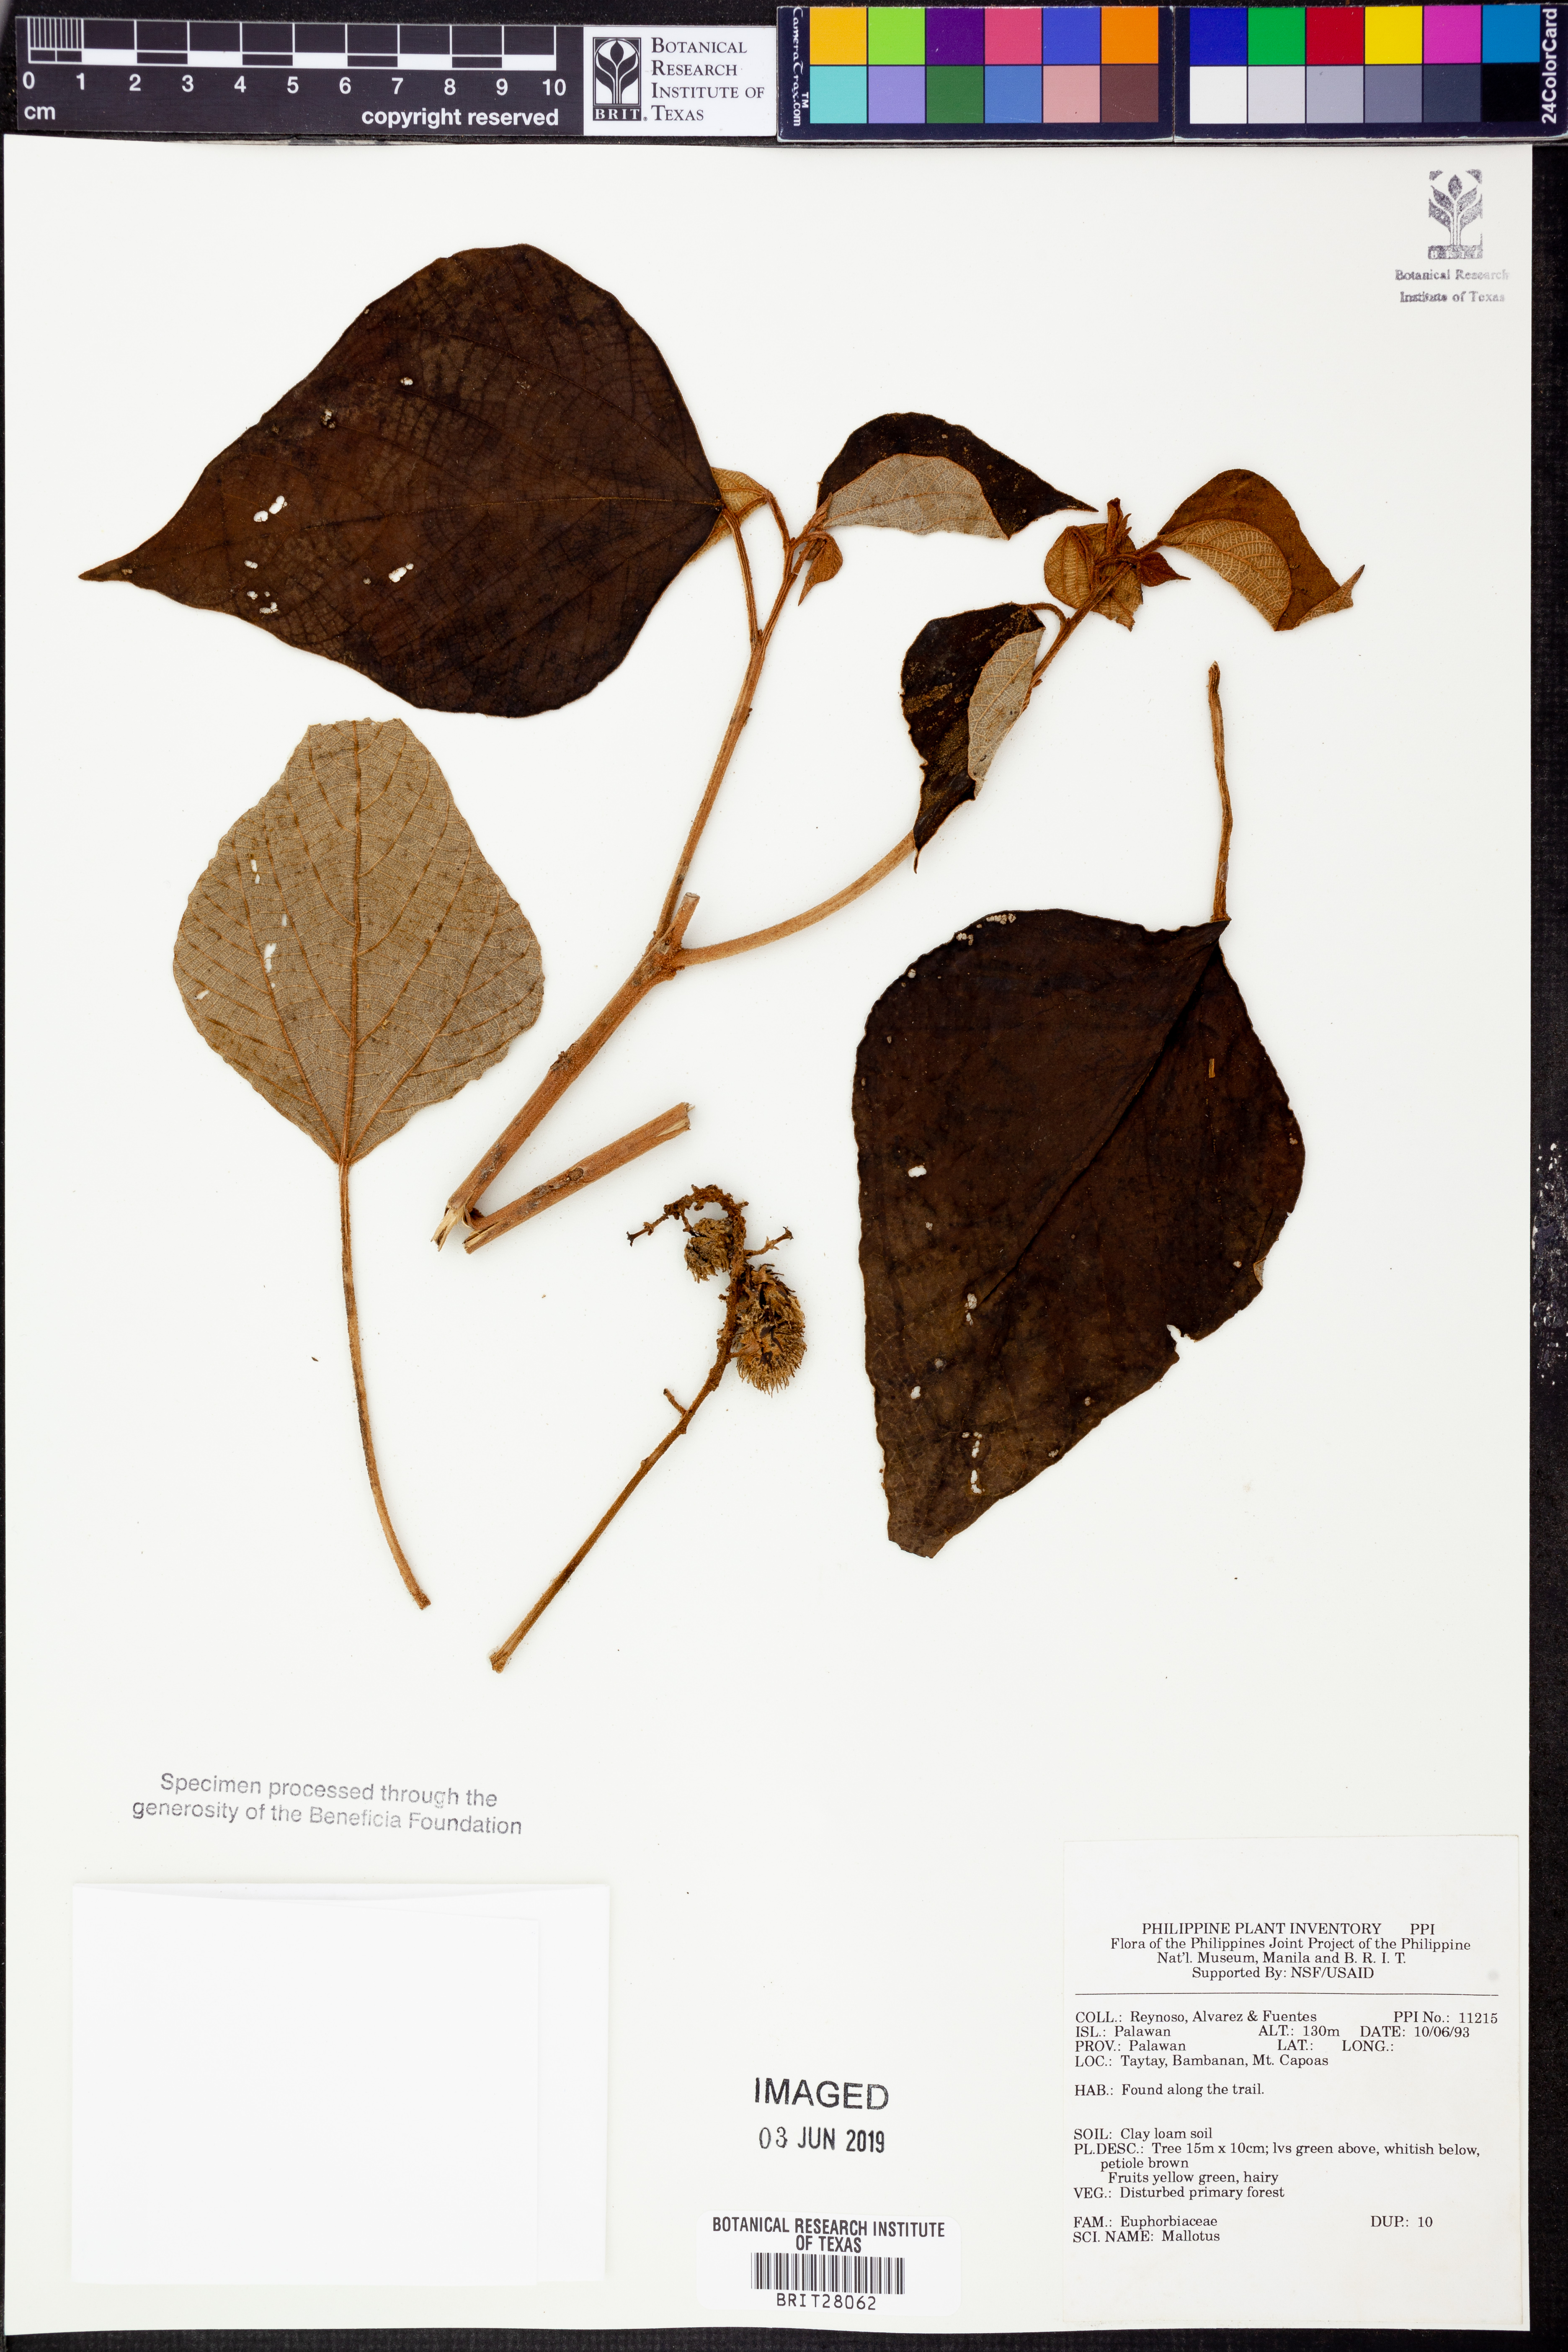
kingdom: Plantae
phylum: Tracheophyta
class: Magnoliopsida
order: Malpighiales
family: Euphorbiaceae
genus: Mallotus
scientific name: Mallotus
